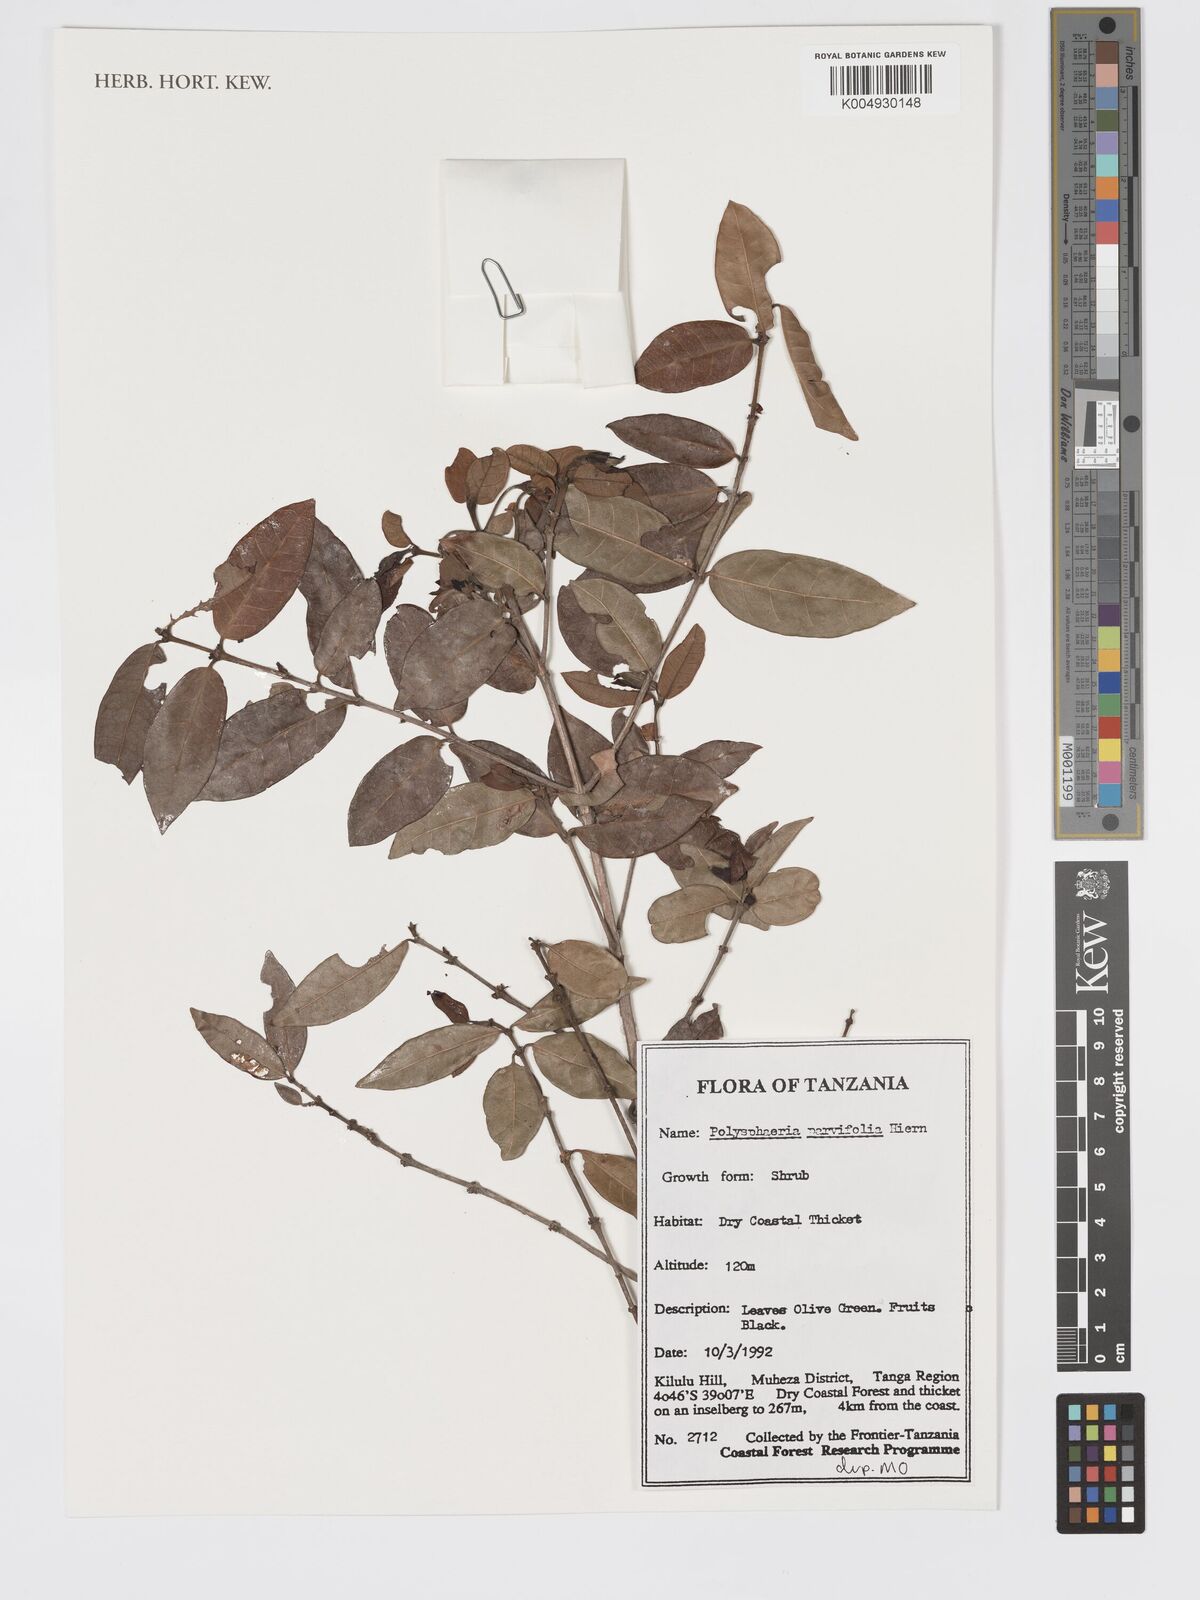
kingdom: Plantae
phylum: Tracheophyta
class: Magnoliopsida
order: Gentianales
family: Rubiaceae
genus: Polysphaeria
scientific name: Polysphaeria parvifolia
